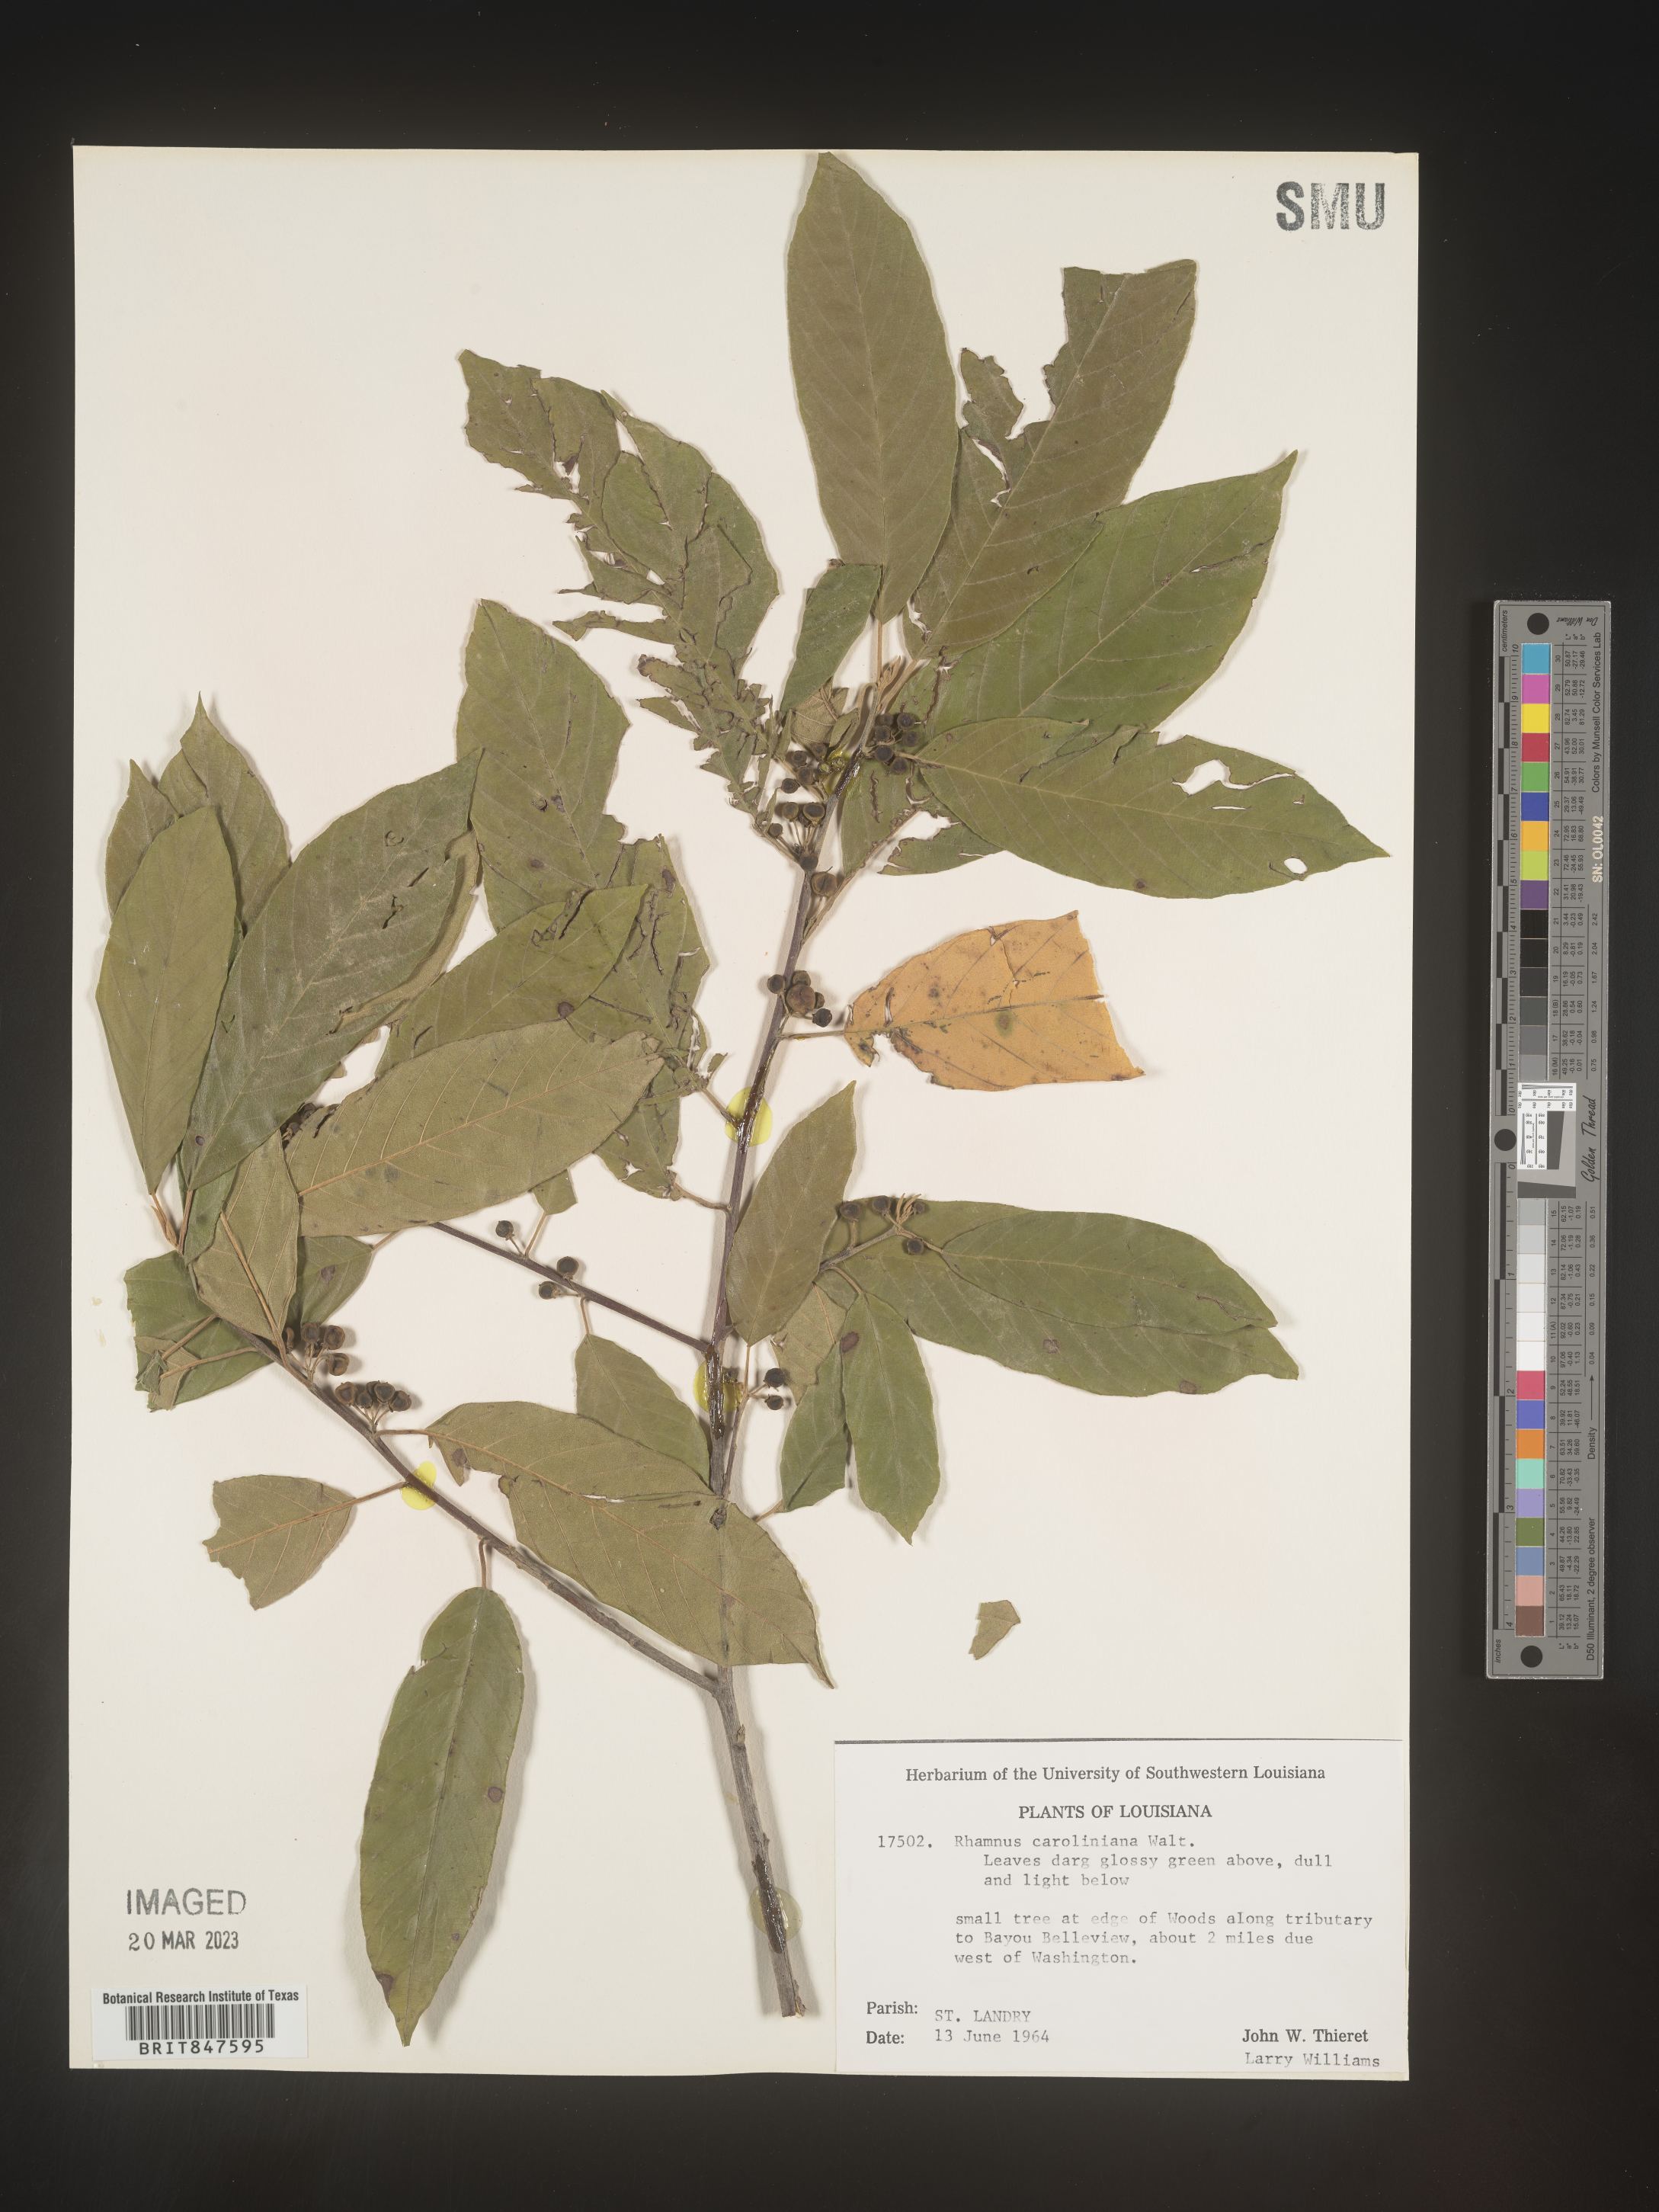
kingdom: Plantae
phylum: Tracheophyta
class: Magnoliopsida
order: Rosales
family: Rhamnaceae
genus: Frangula
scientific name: Frangula caroliniana
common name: Carolina buckthorn
